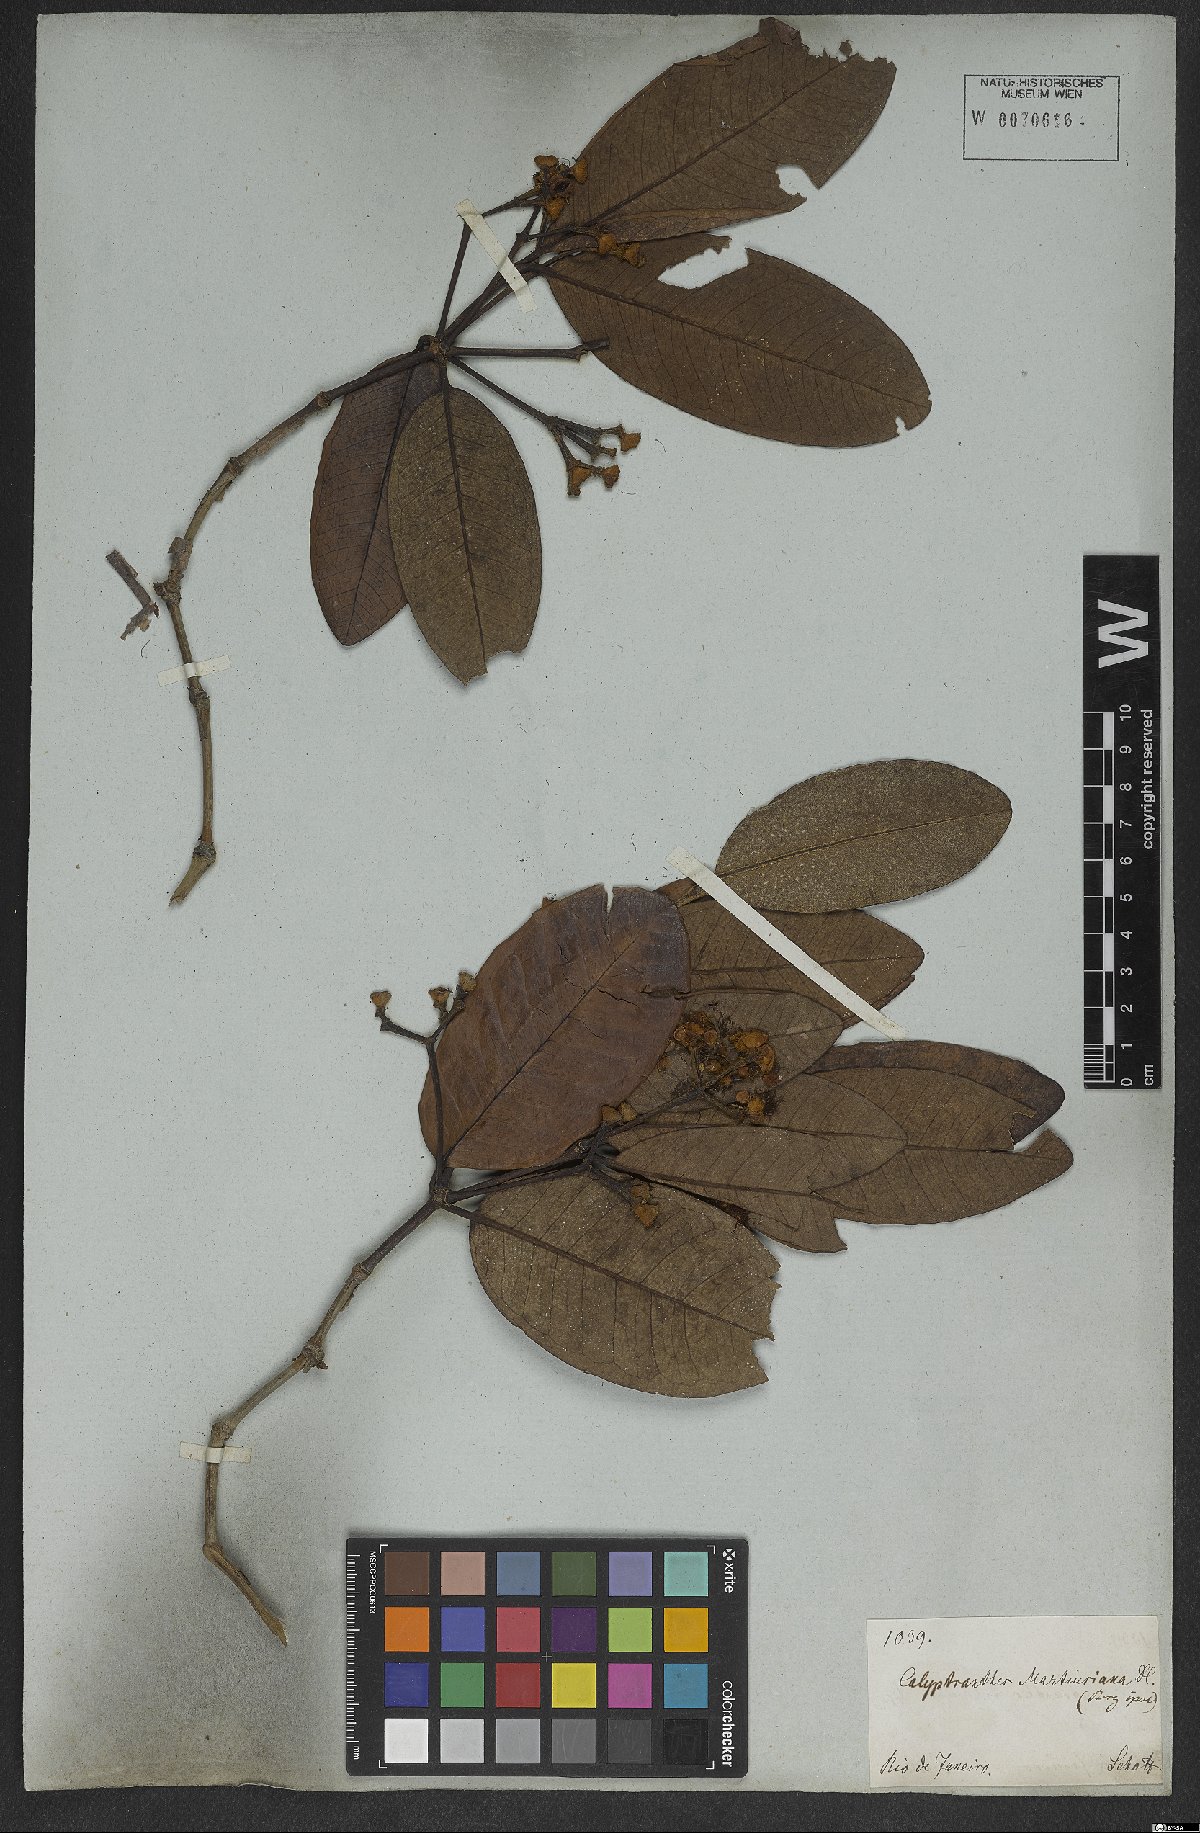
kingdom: Plantae
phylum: Tracheophyta
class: Magnoliopsida
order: Myrtales
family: Myrtaceae
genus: Myrcia
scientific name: Myrcia martiusiana
